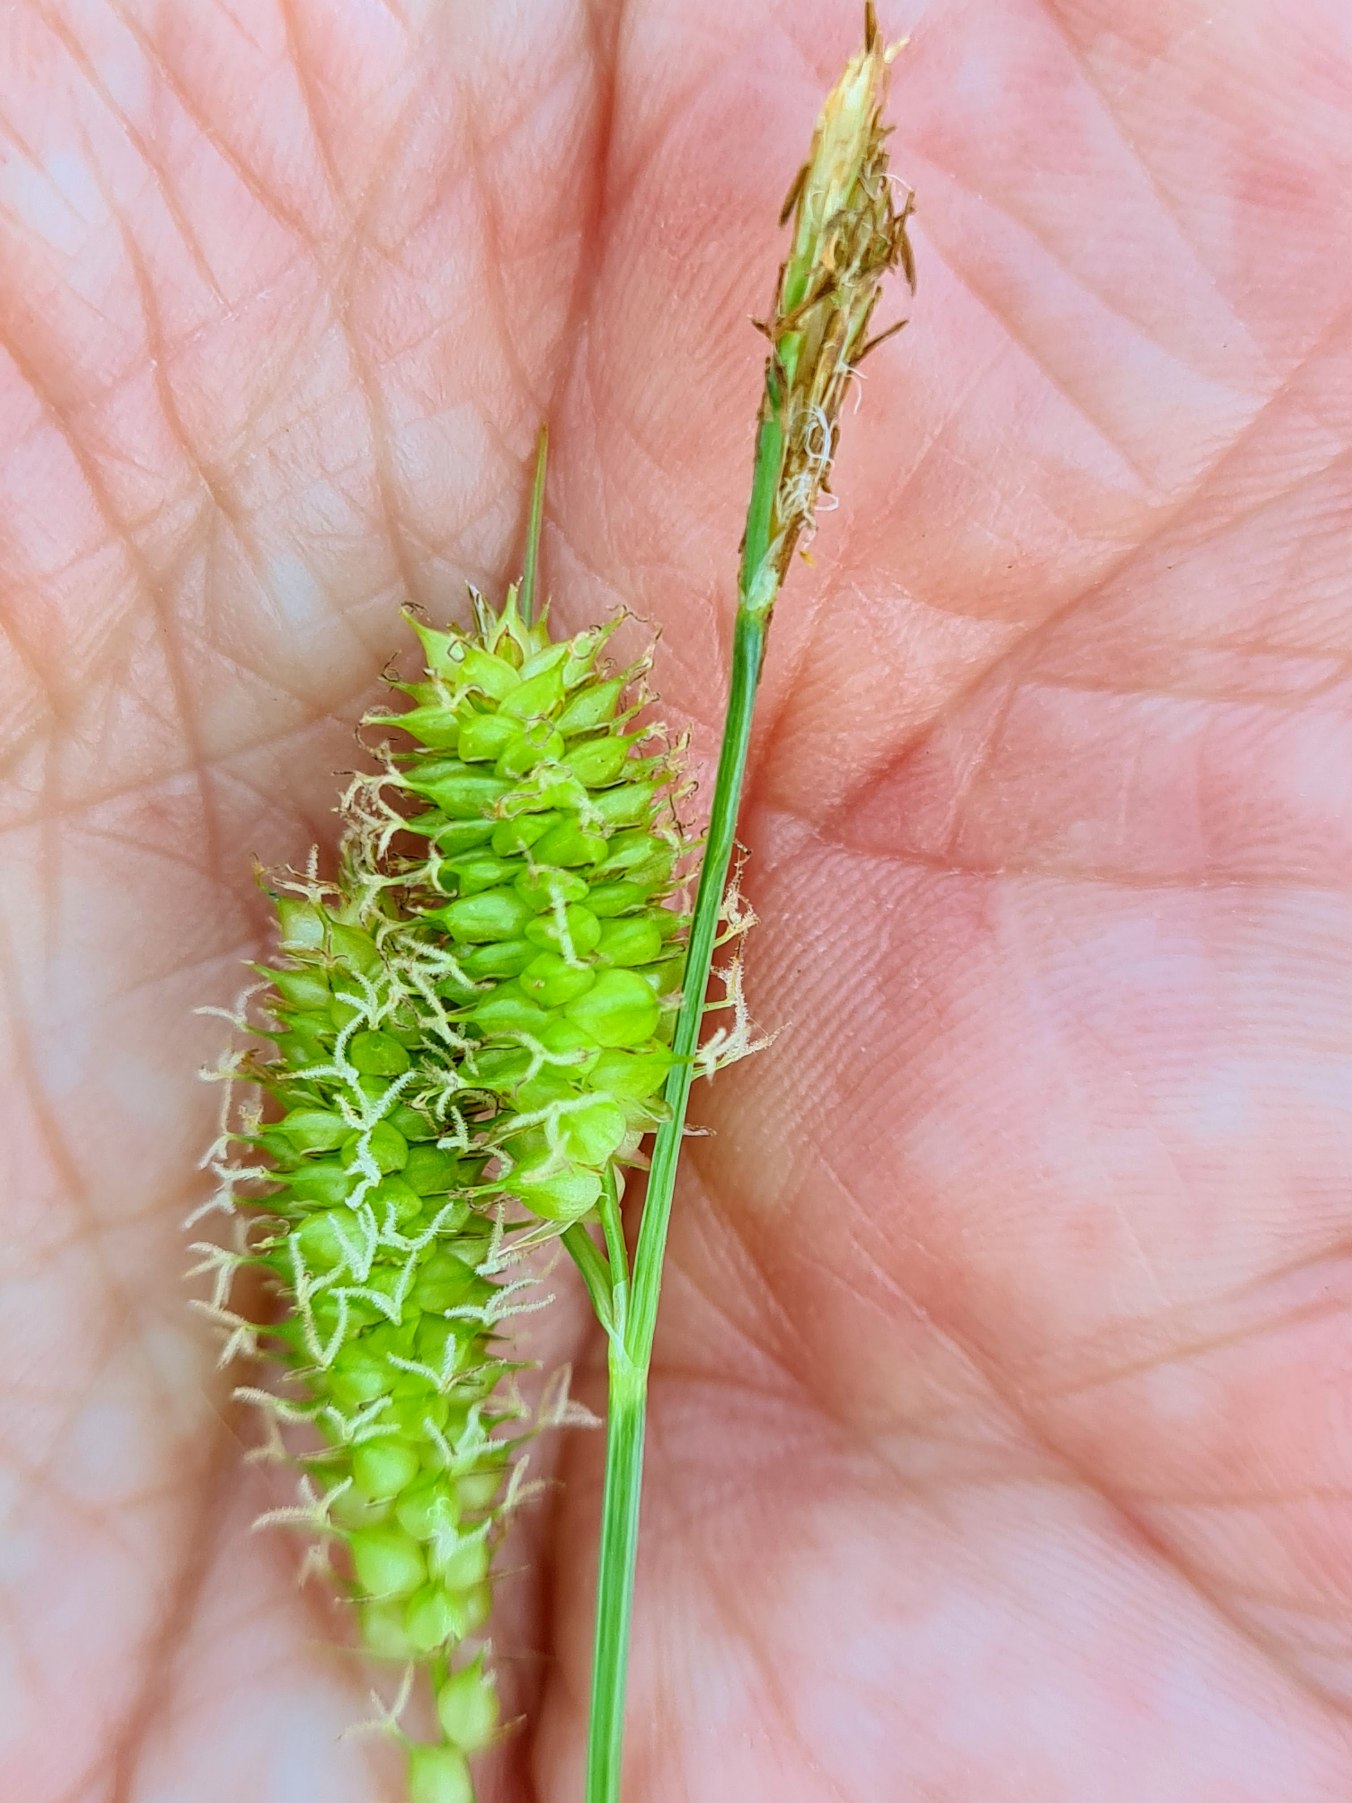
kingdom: Plantae
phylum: Tracheophyta
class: Liliopsida
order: Poales
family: Cyperaceae
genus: Carex
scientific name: Carex rostrata
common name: Næb-star
